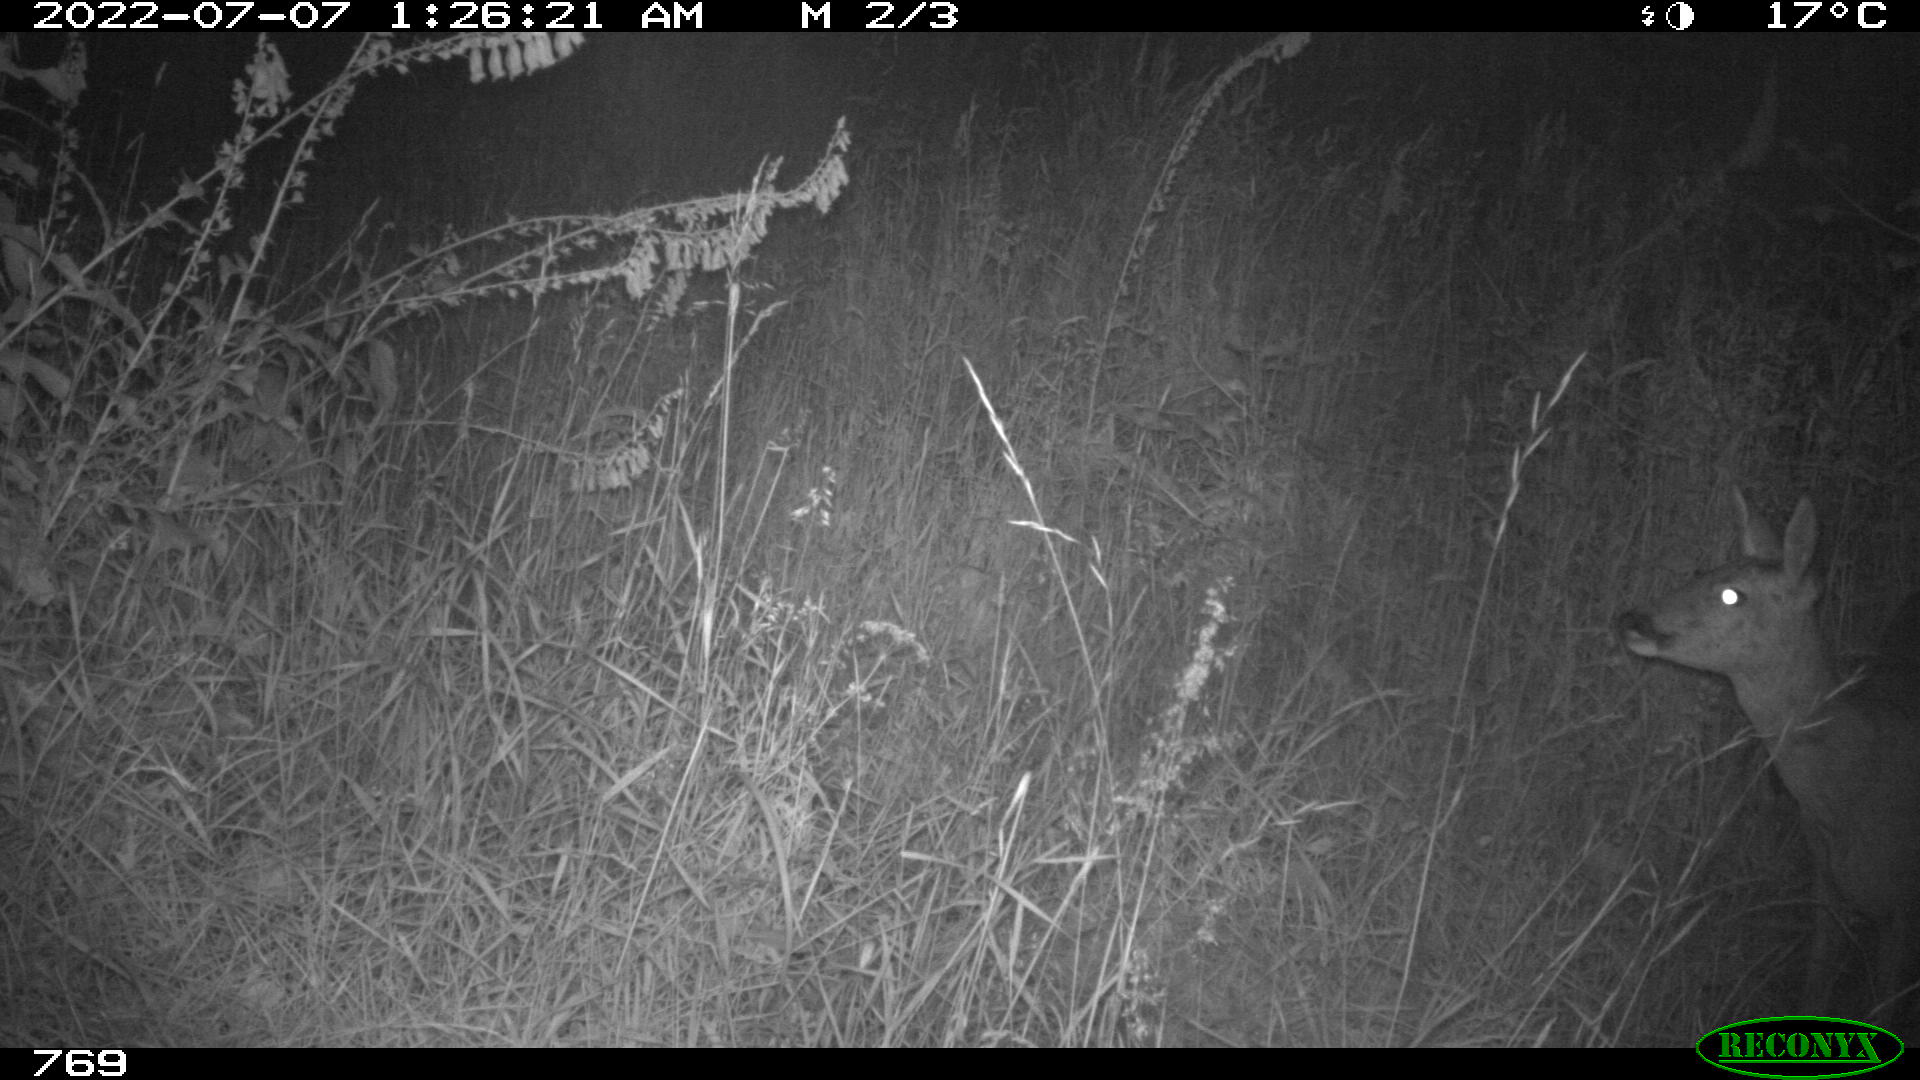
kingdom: Animalia
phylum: Chordata
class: Mammalia
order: Artiodactyla
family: Cervidae
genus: Capreolus
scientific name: Capreolus capreolus
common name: Western roe deer
